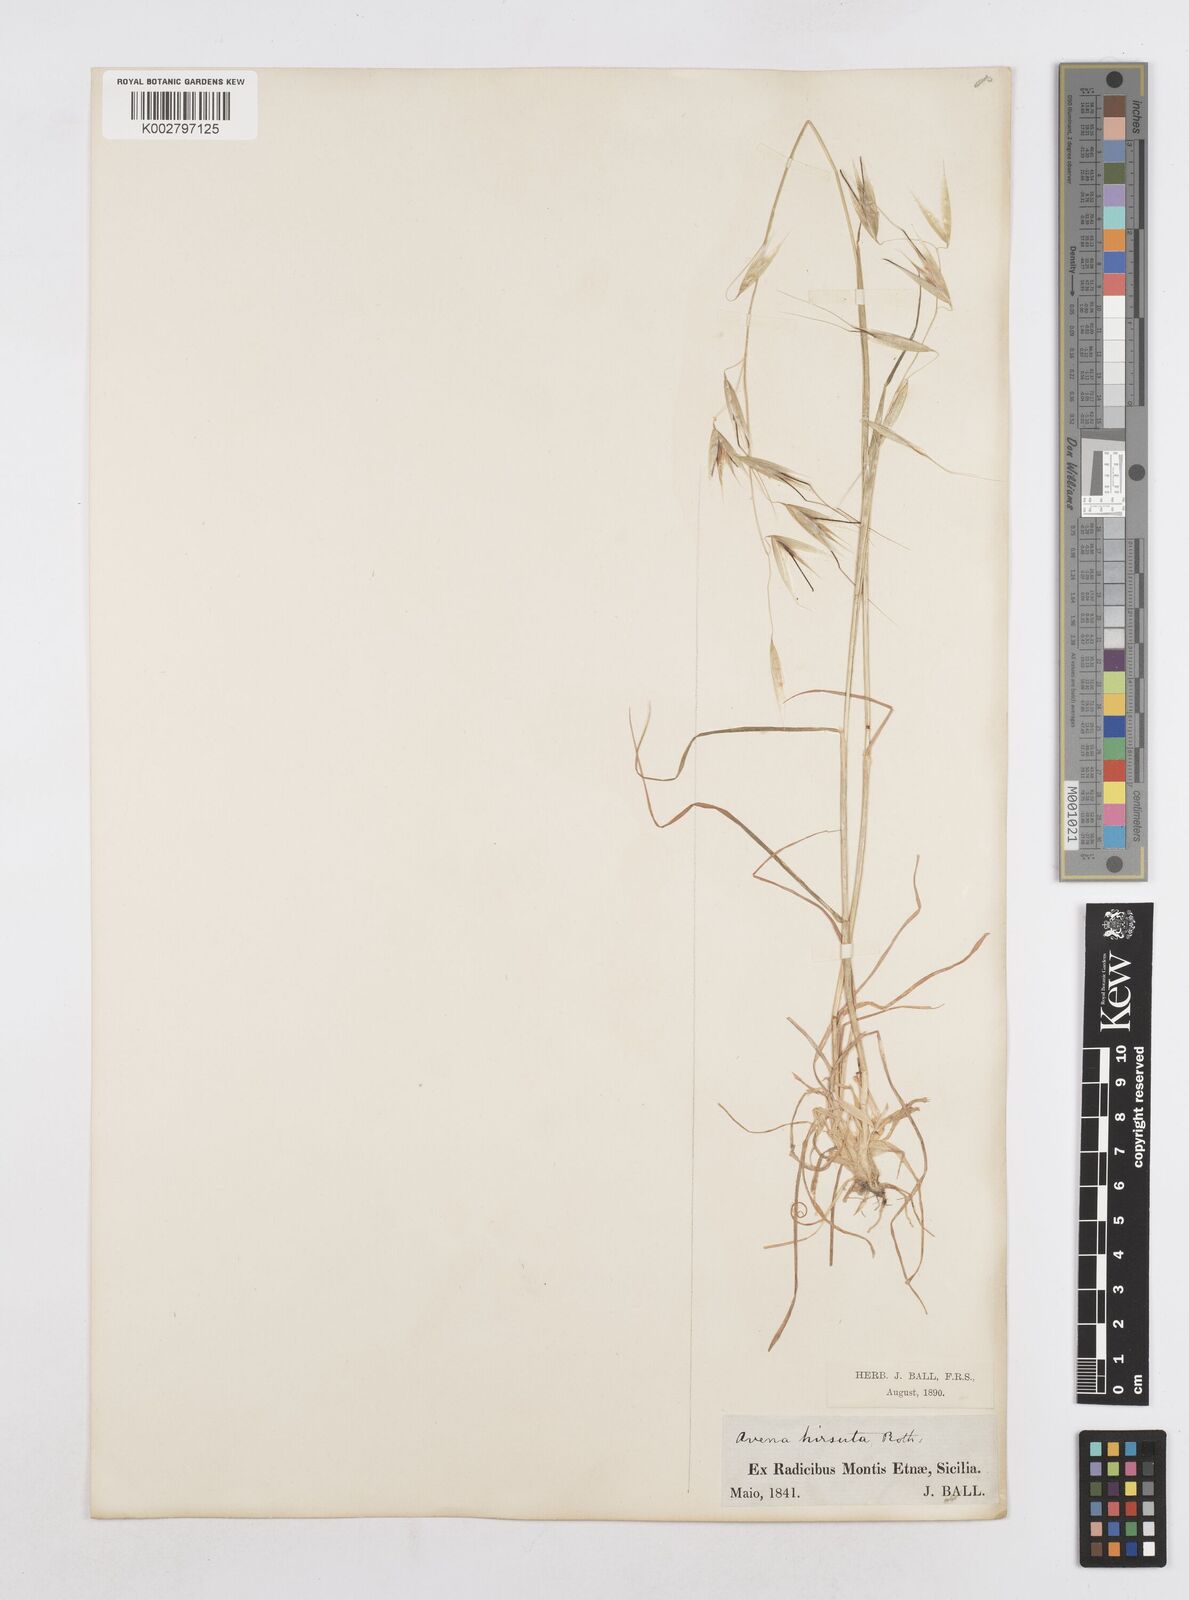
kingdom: Plantae
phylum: Tracheophyta
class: Liliopsida
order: Poales
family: Poaceae
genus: Avena
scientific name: Avena
